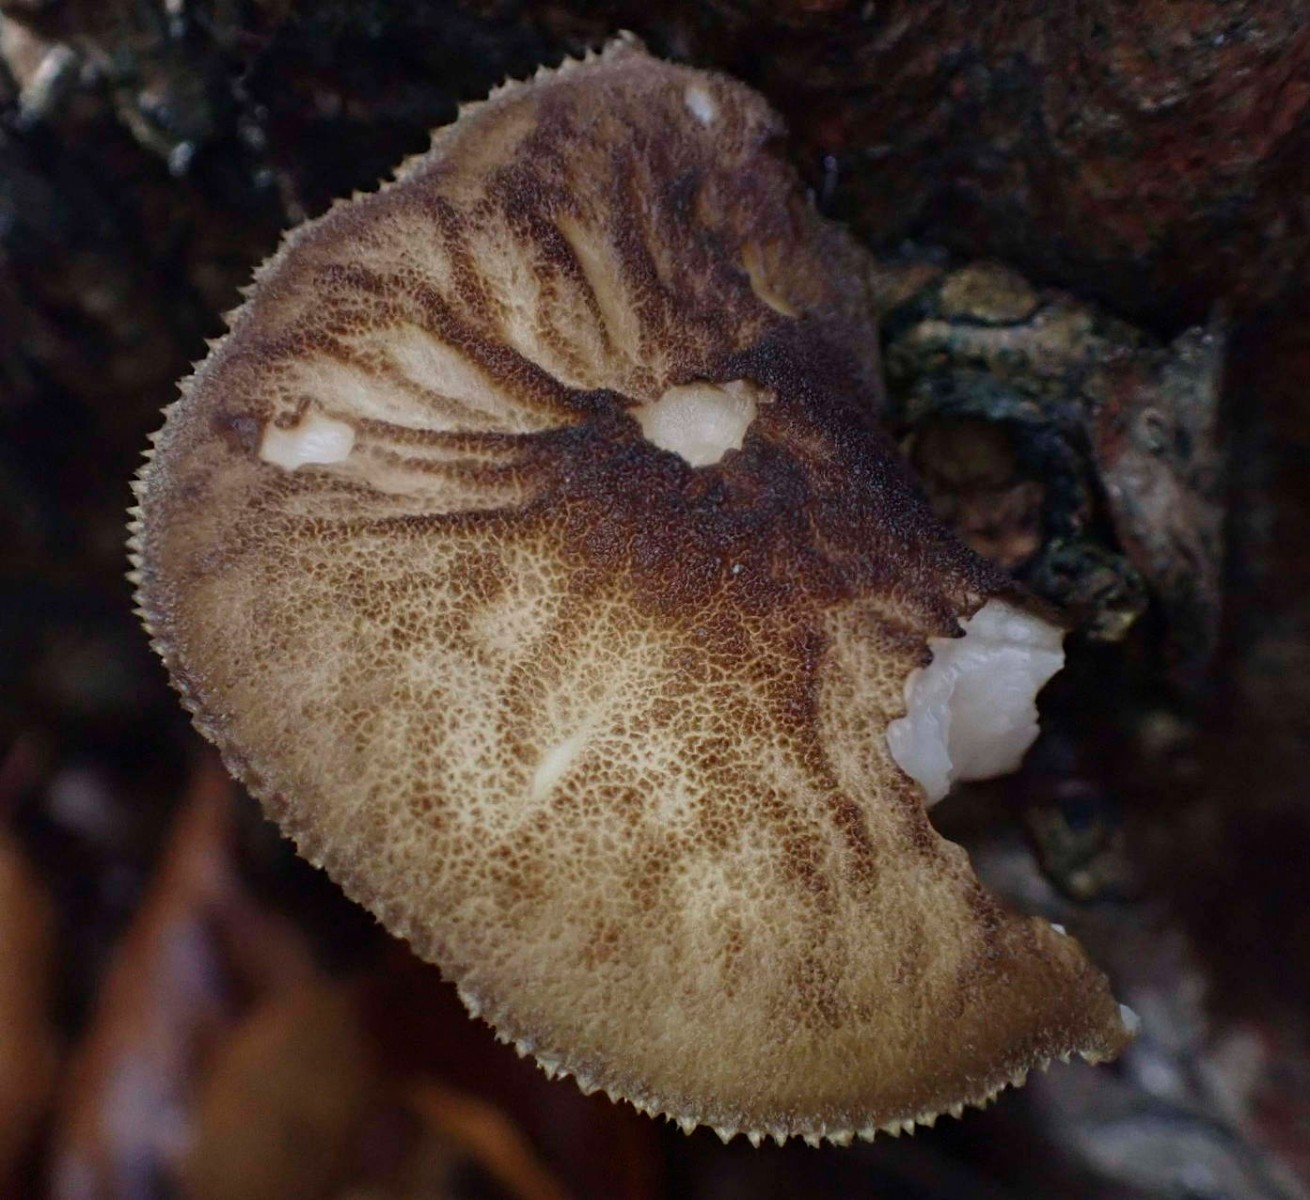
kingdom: Fungi
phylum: Basidiomycota
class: Agaricomycetes
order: Agaricales
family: Pluteaceae
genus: Pluteus
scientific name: Pluteus umbrosus
